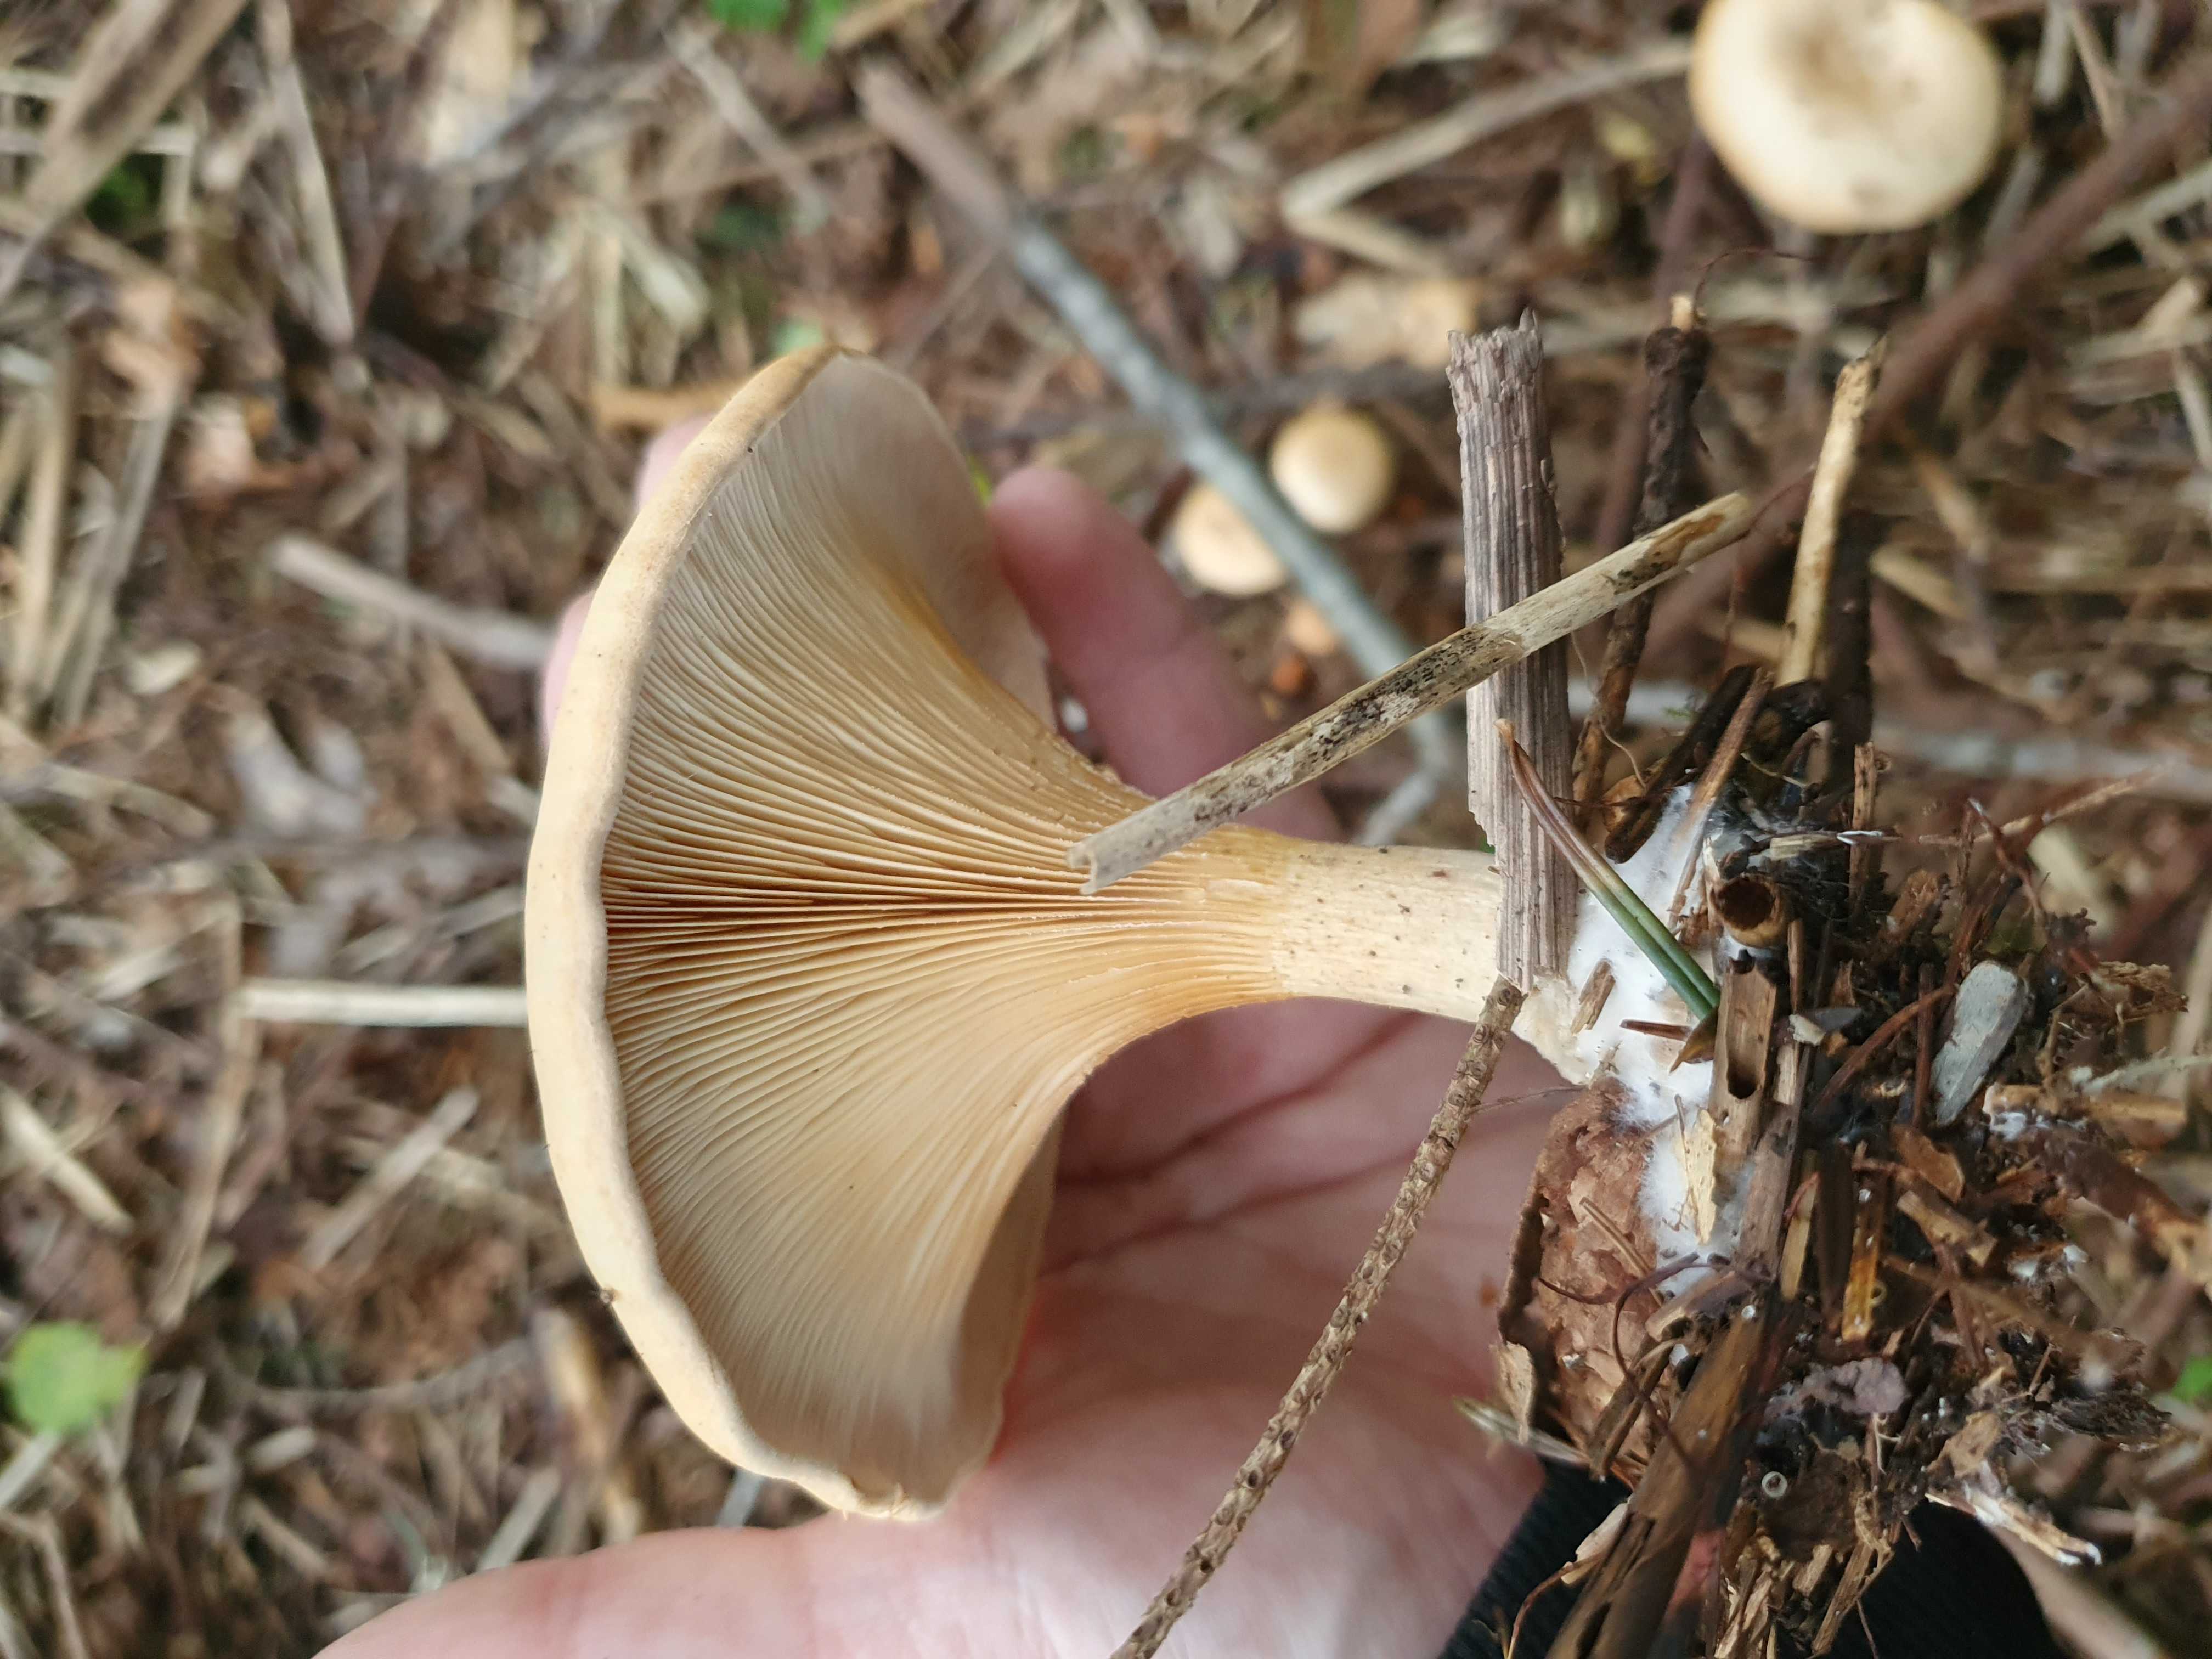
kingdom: Fungi
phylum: Basidiomycota
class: Agaricomycetes
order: Agaricales
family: Tricholomataceae
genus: Paralepista
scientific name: Paralepista
